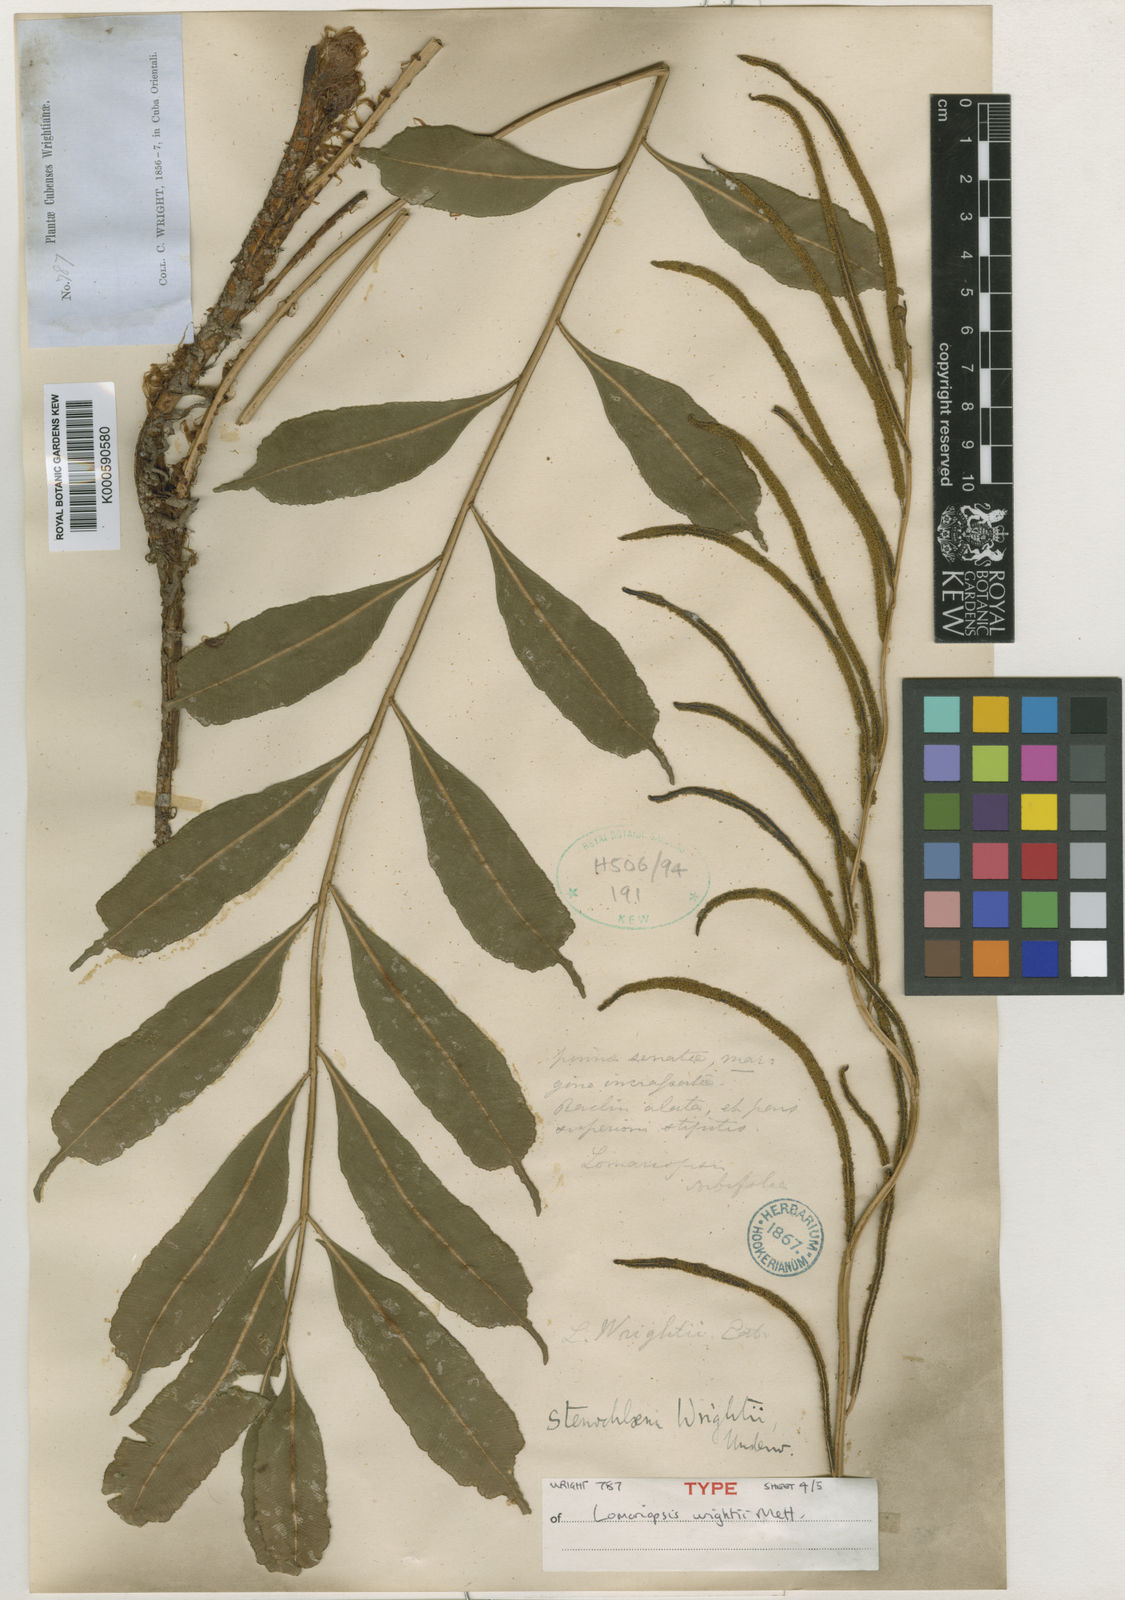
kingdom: Plantae
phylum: Tracheophyta
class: Polypodiopsida
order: Polypodiales
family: Lomariopsidaceae
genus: Lomariopsis
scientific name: Lomariopsis
